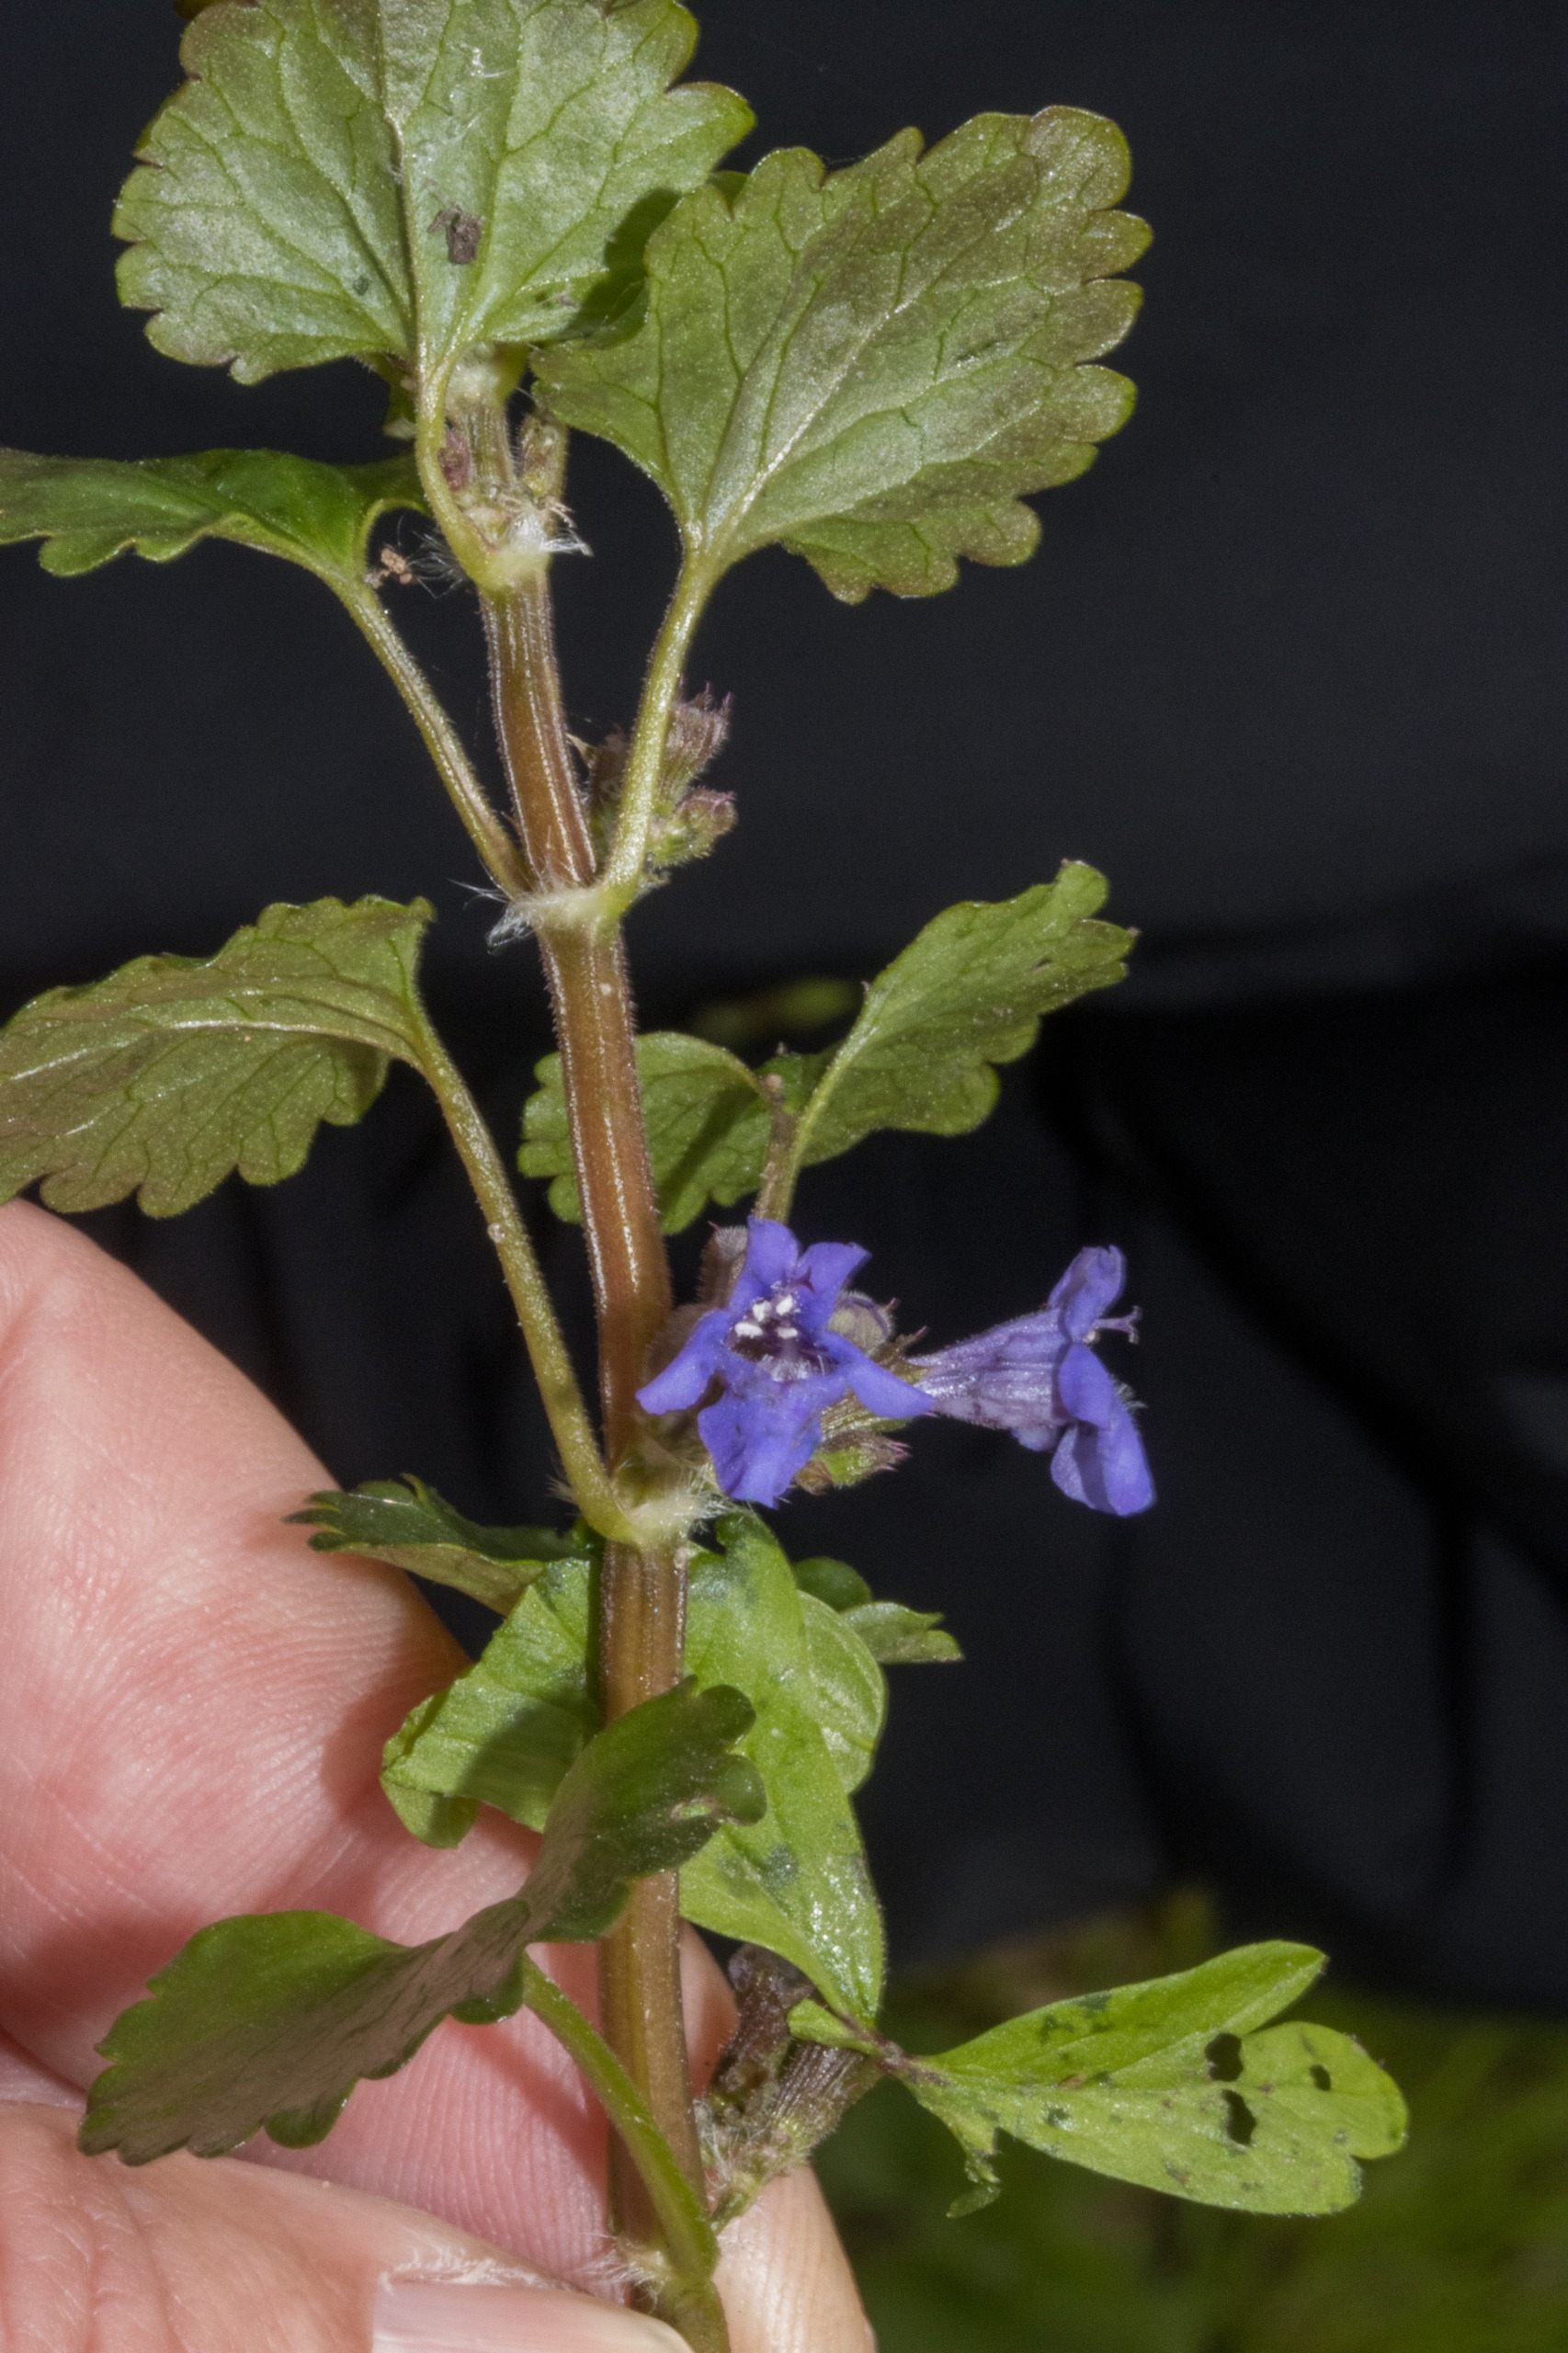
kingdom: Plantae
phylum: Tracheophyta
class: Magnoliopsida
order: Lamiales
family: Lamiaceae
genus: Glechoma
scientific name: Glechoma hederacea
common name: Korsknap
